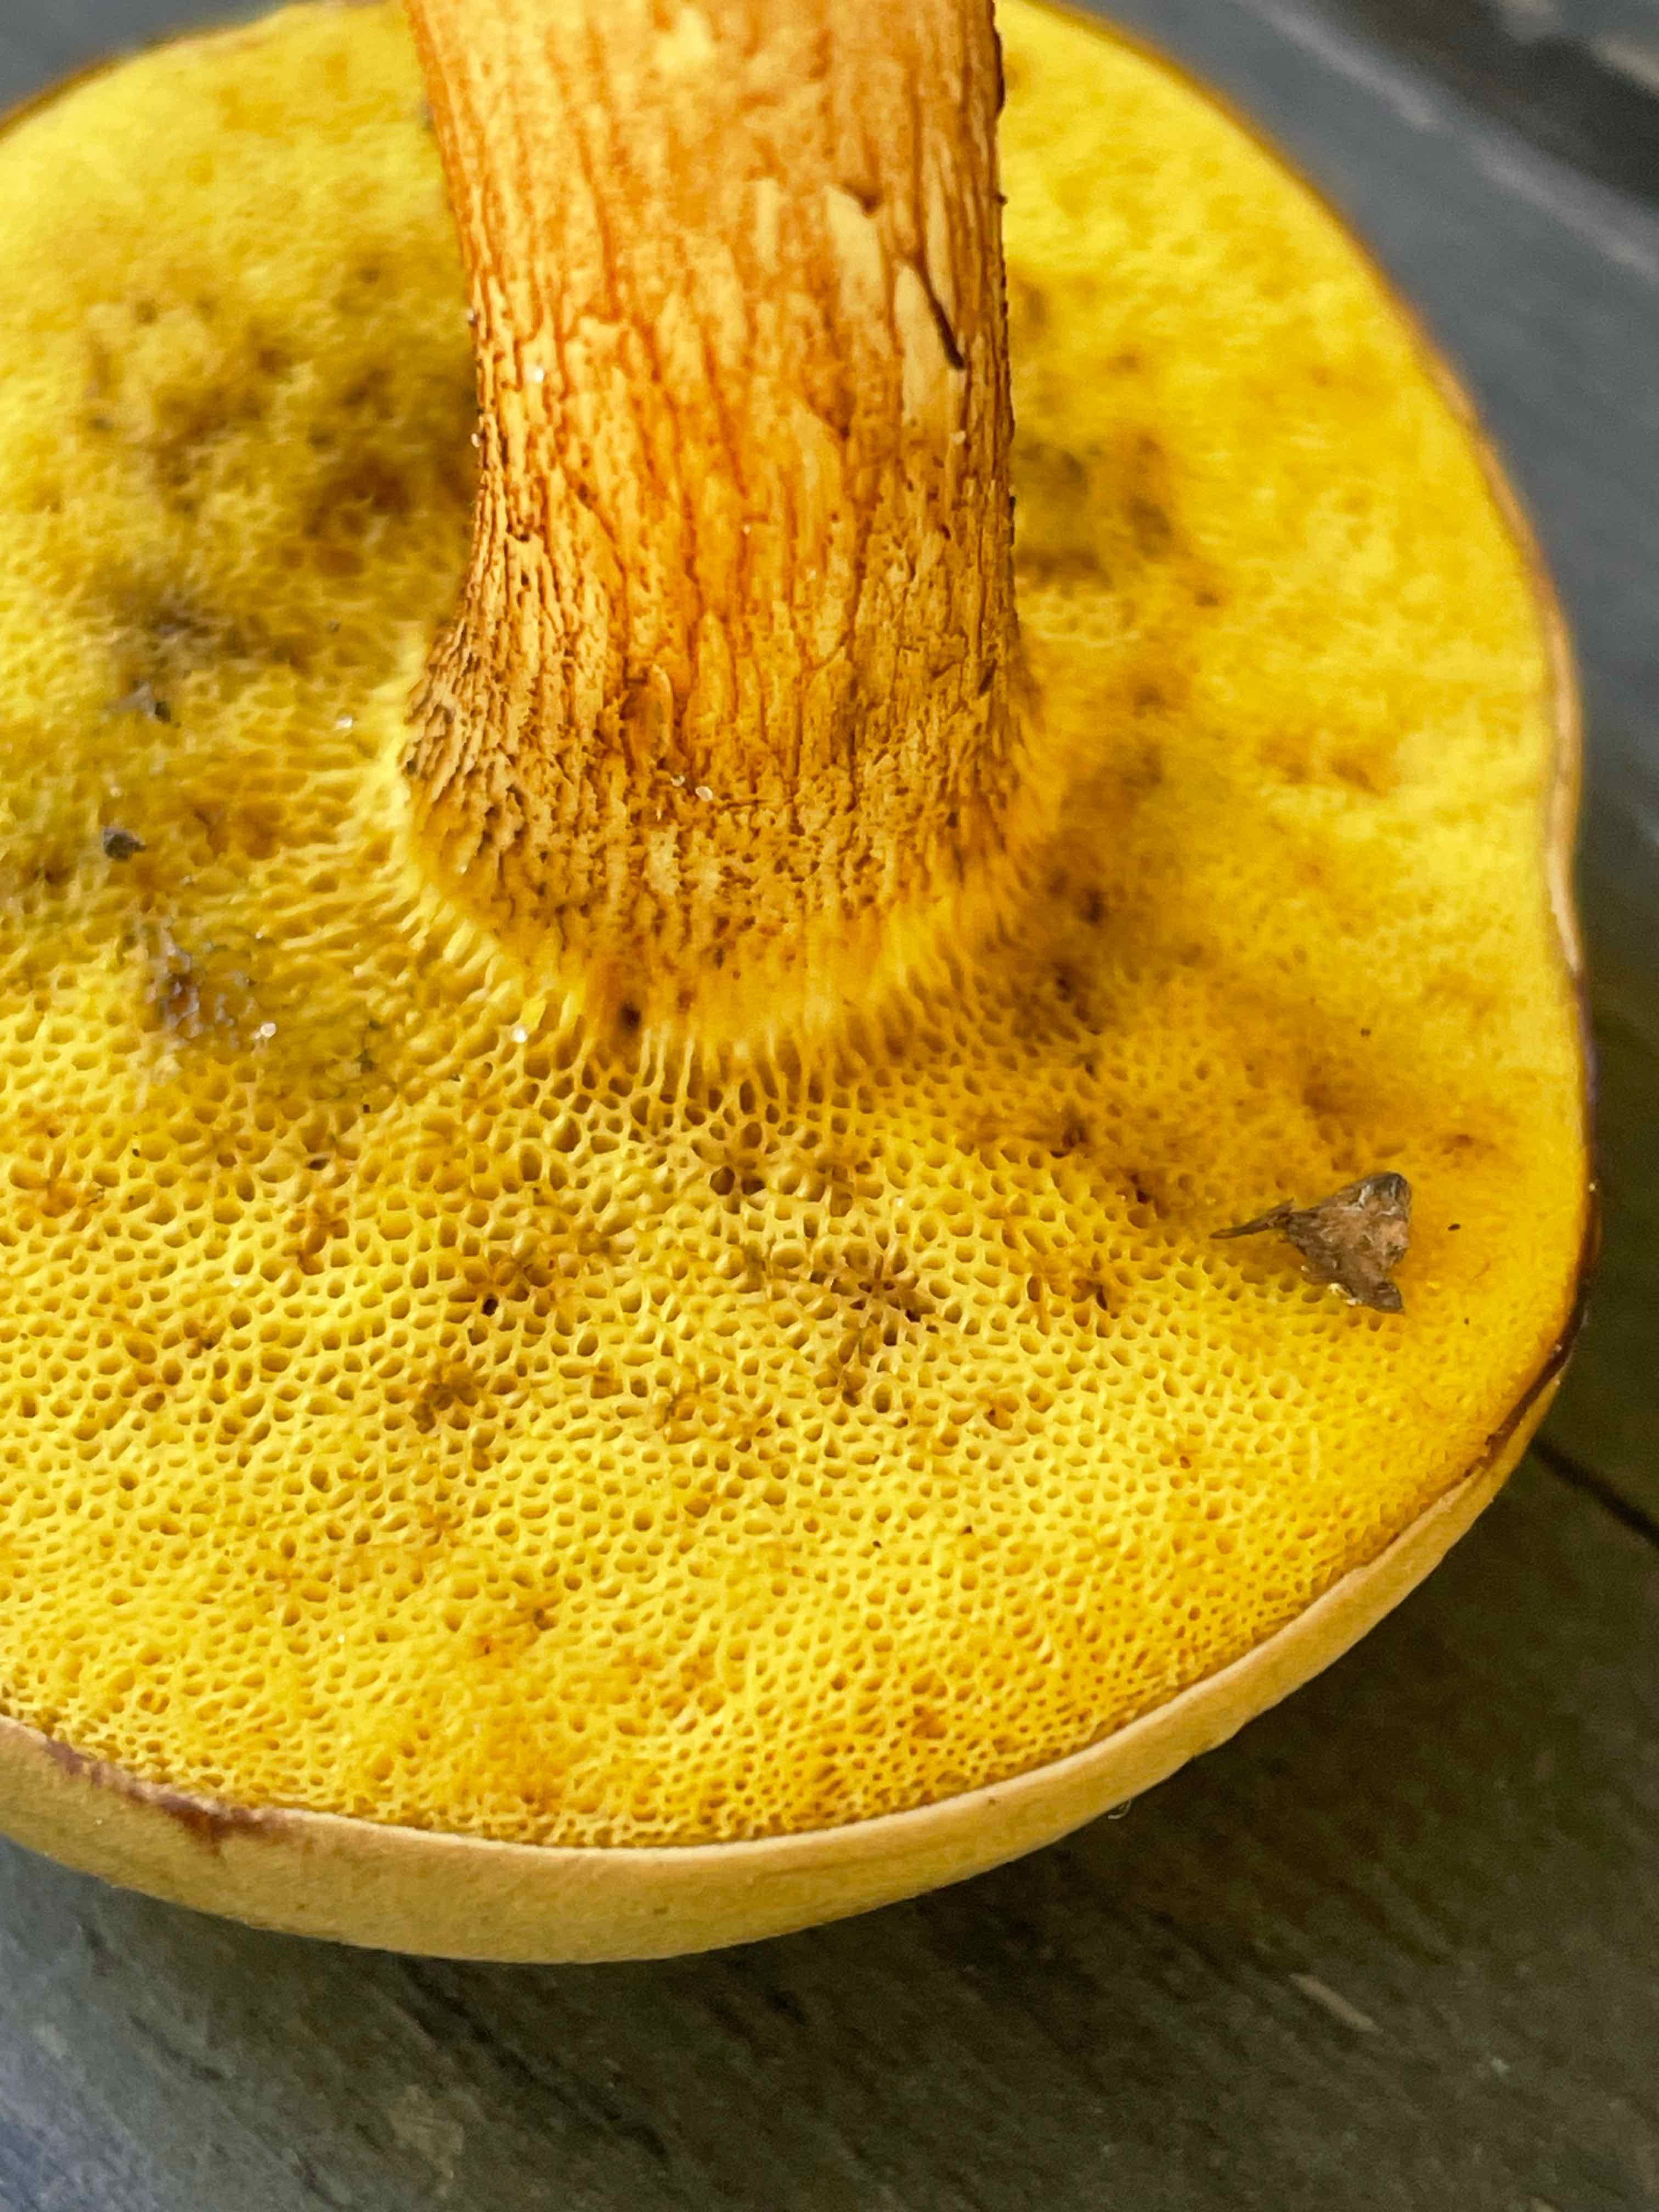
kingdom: Fungi
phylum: Basidiomycota
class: Agaricomycetes
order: Boletales
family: Boletaceae
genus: Xerocomus
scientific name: Xerocomus
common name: filtrørhat
